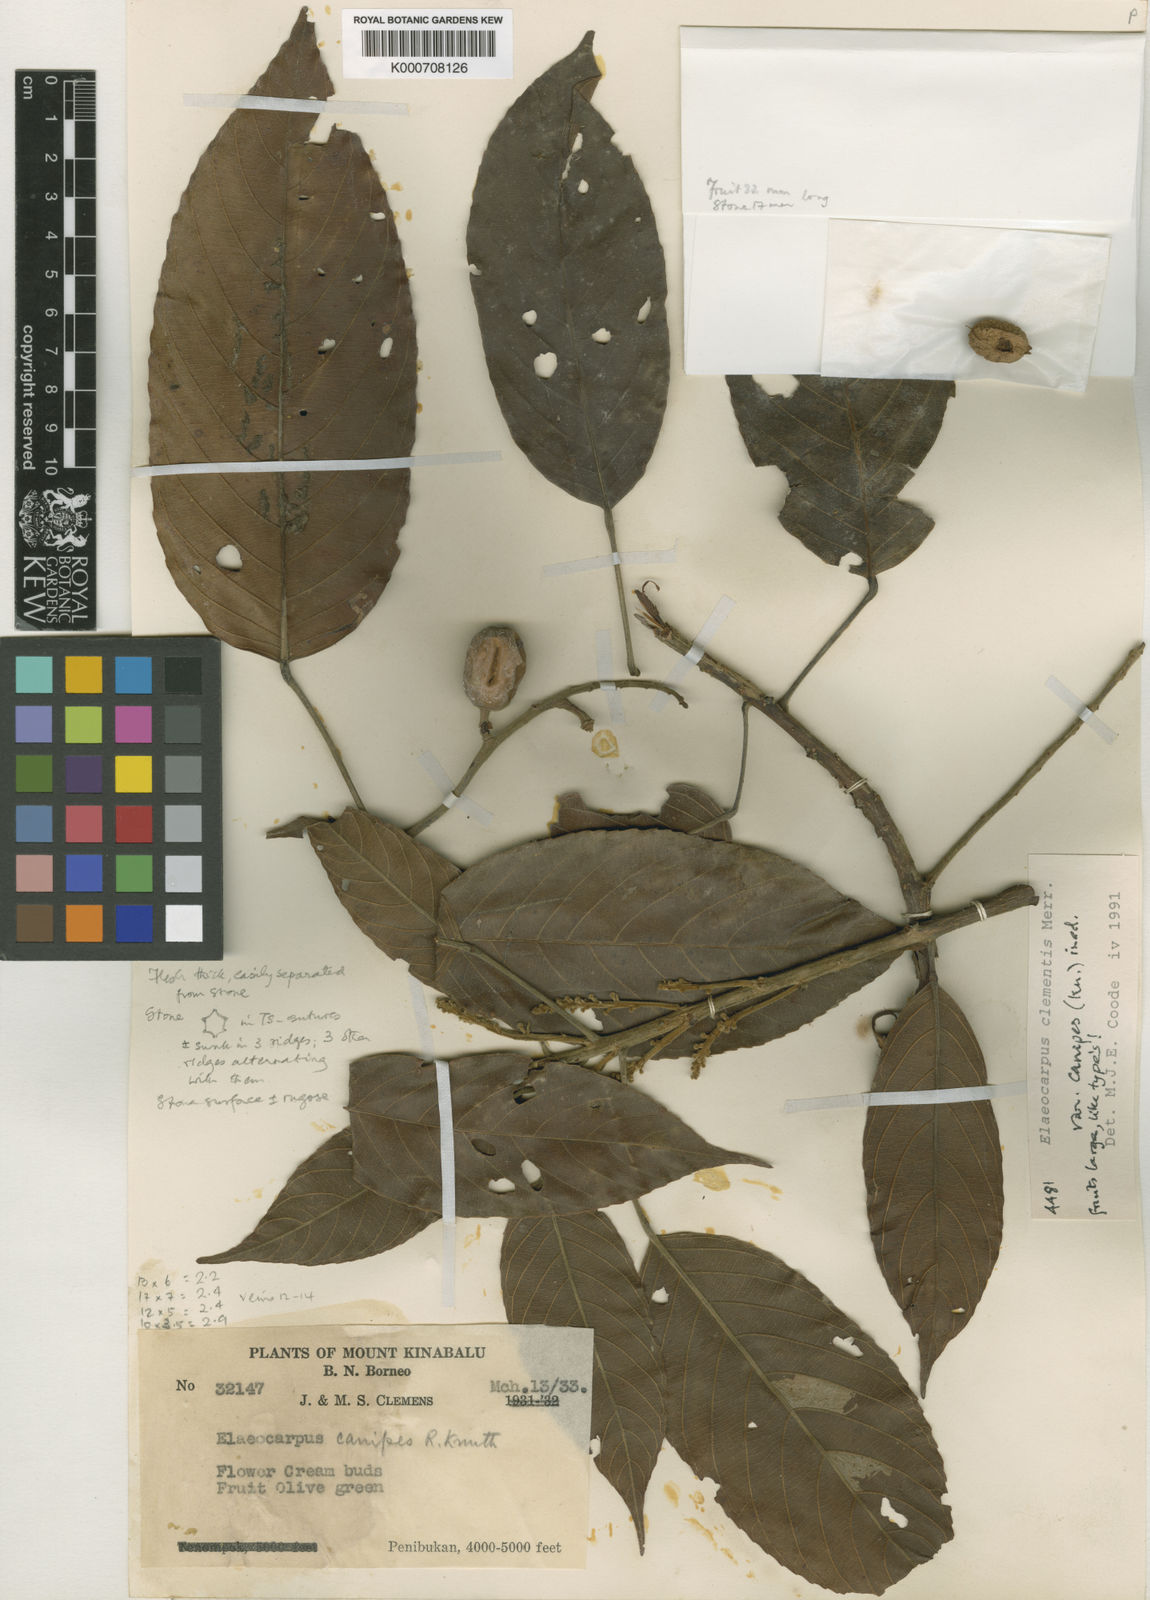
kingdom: Plantae
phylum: Tracheophyta
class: Magnoliopsida
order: Oxalidales
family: Elaeocarpaceae
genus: Elaeocarpus
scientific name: Elaeocarpus clementis
